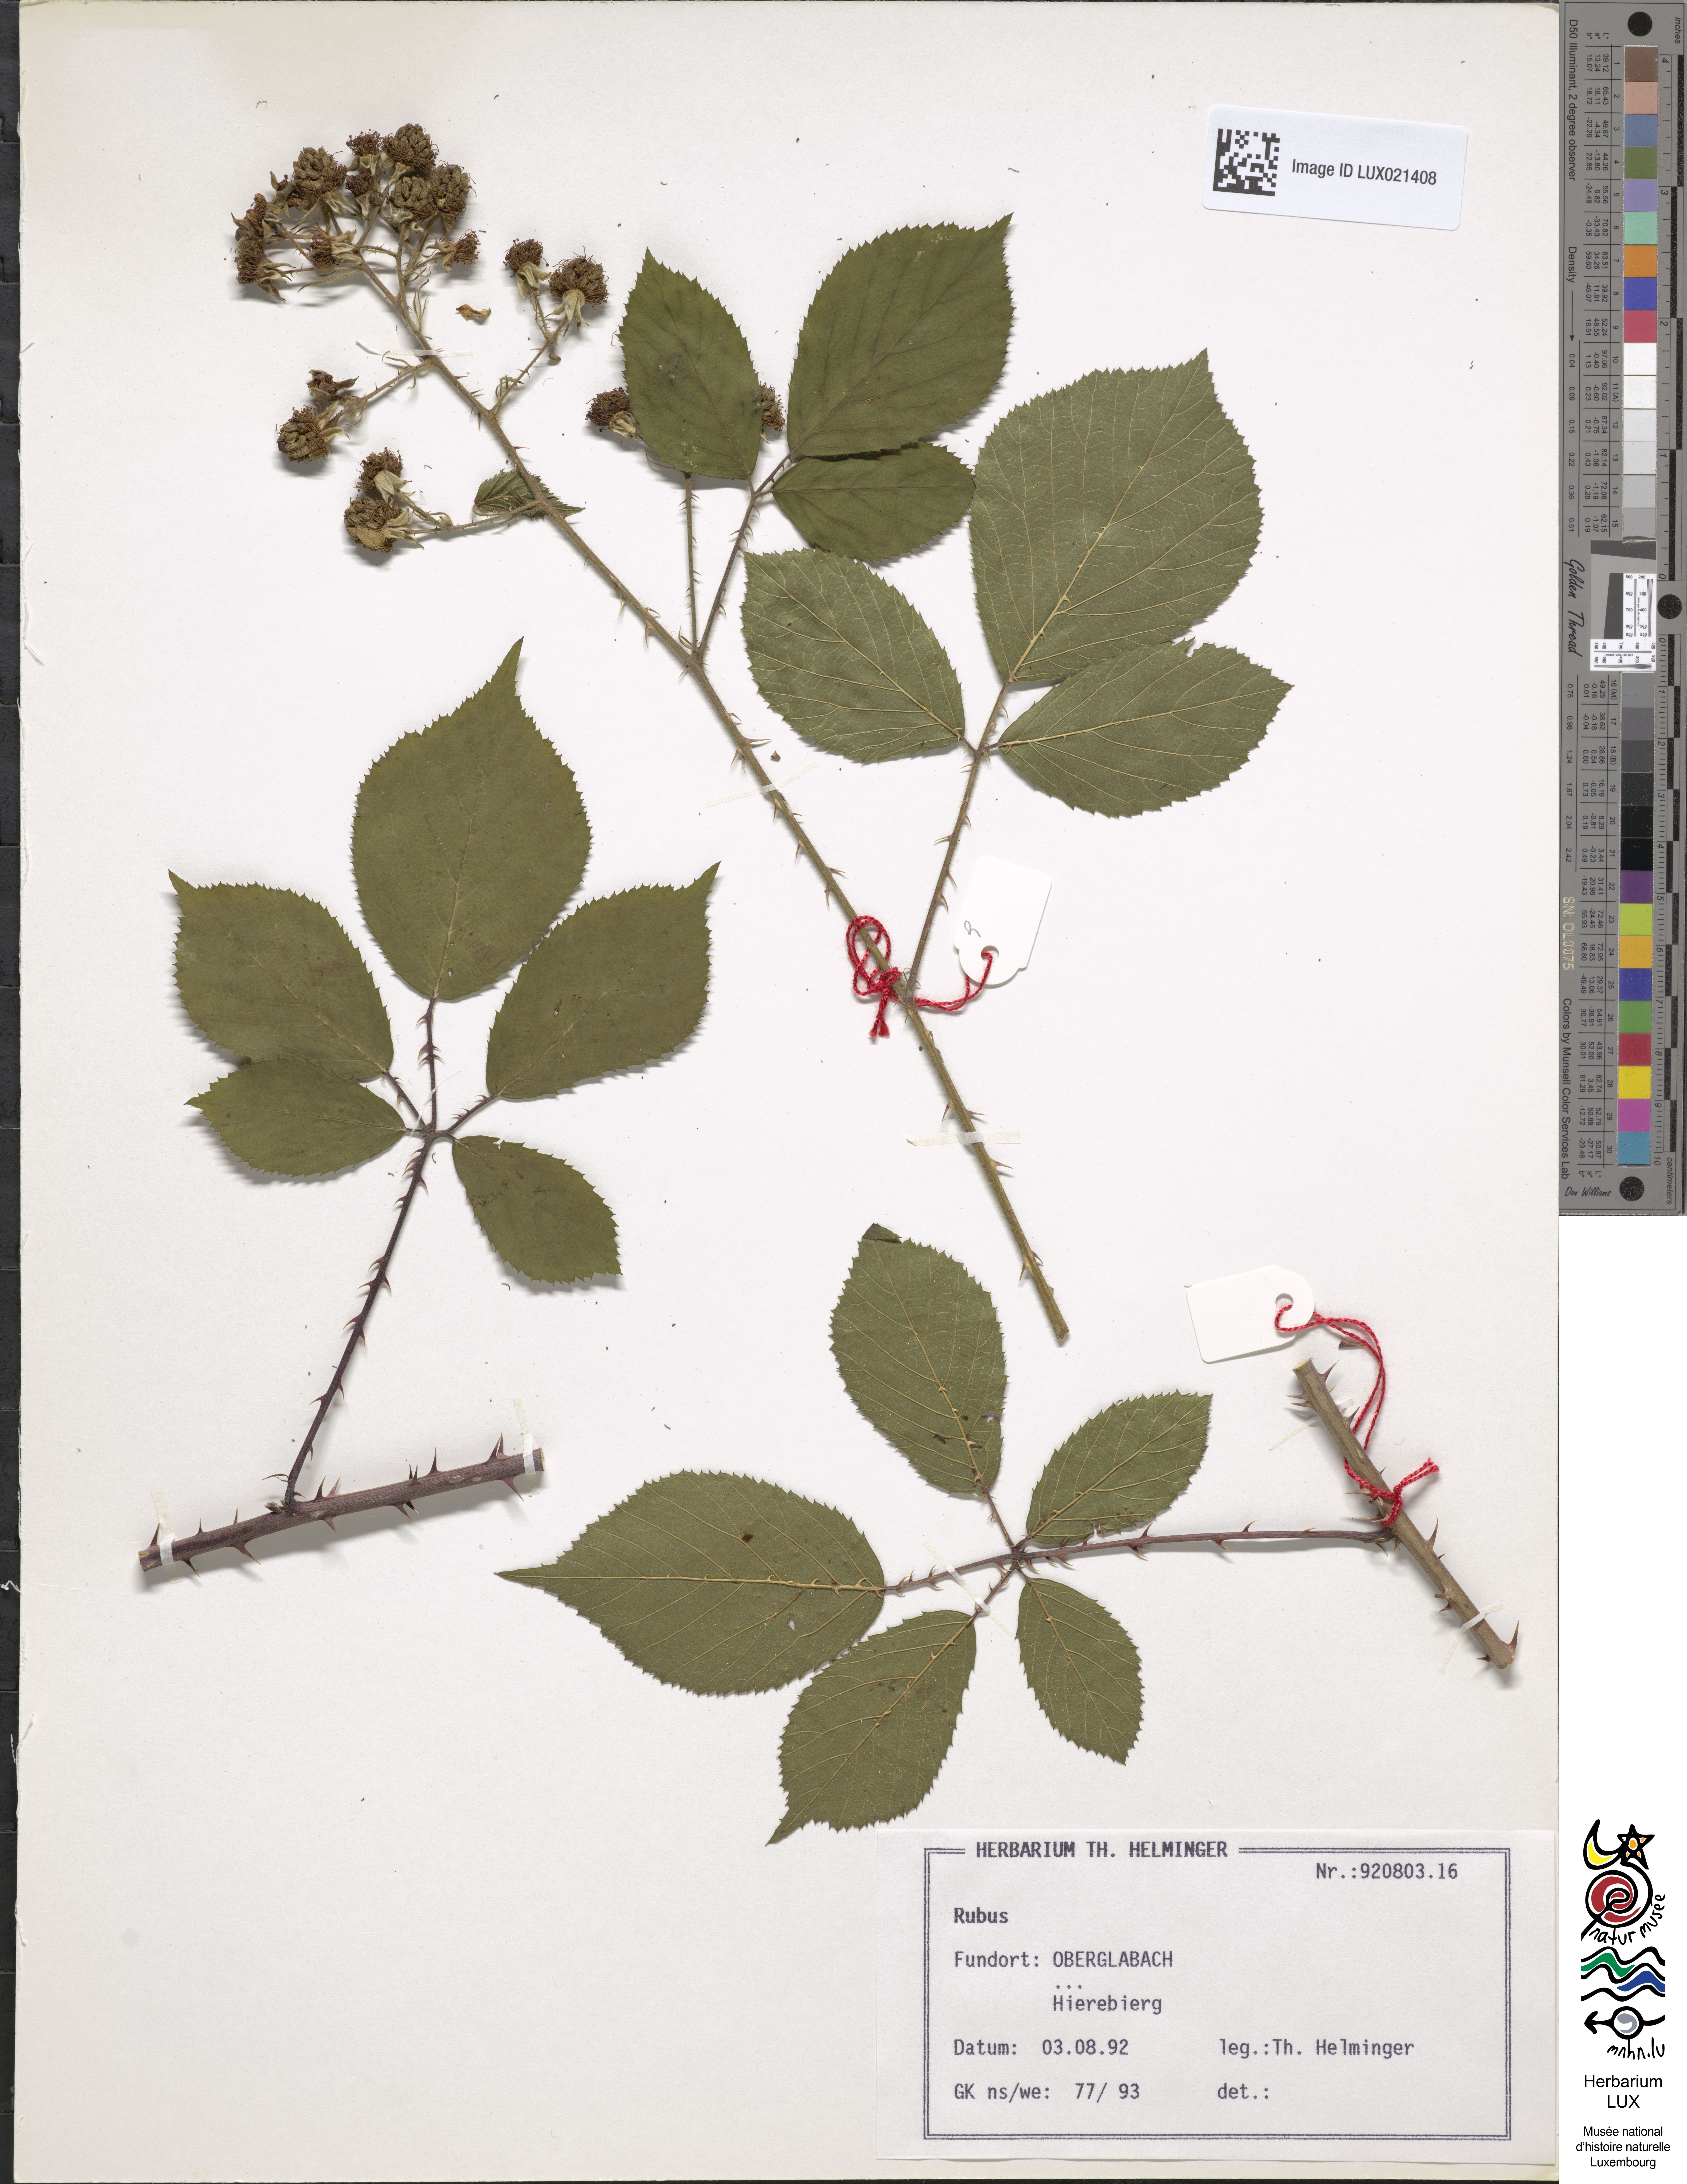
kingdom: Plantae
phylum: Tracheophyta
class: Magnoliopsida
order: Rosales
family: Rosaceae
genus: Rubus
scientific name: Rubus
